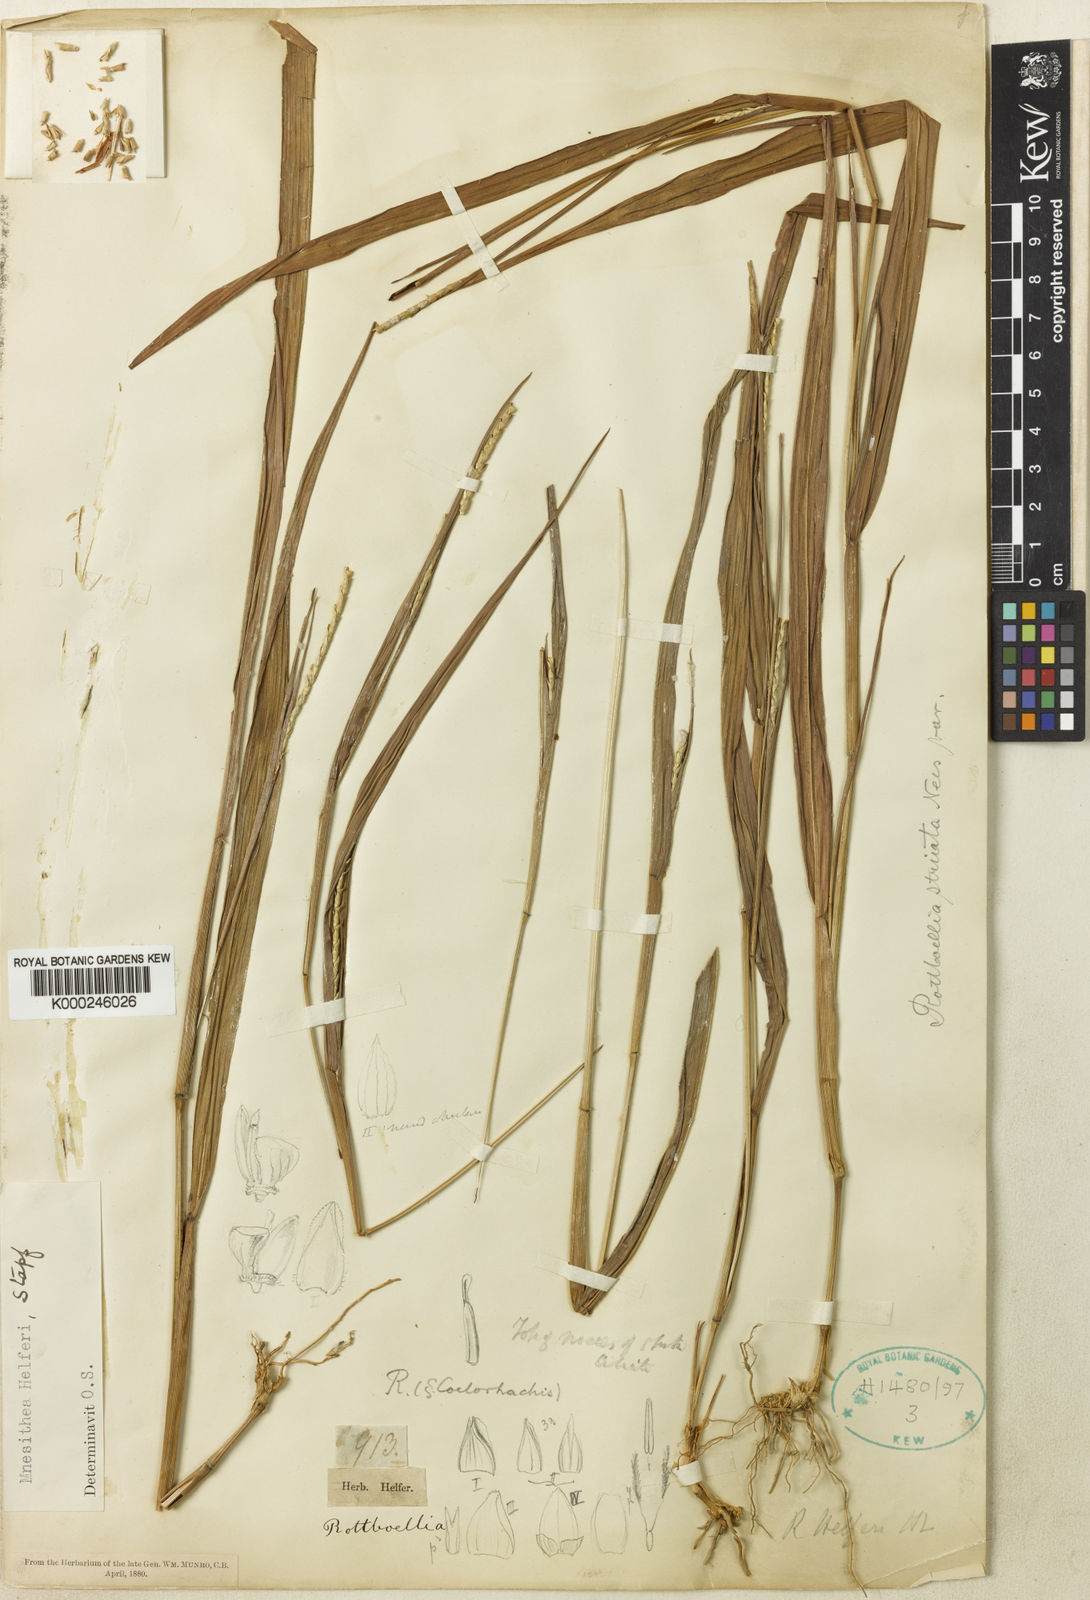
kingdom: Plantae
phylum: Tracheophyta
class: Liliopsida
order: Poales
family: Poaceae
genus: Rottboellia
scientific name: Rottboellia helferi
